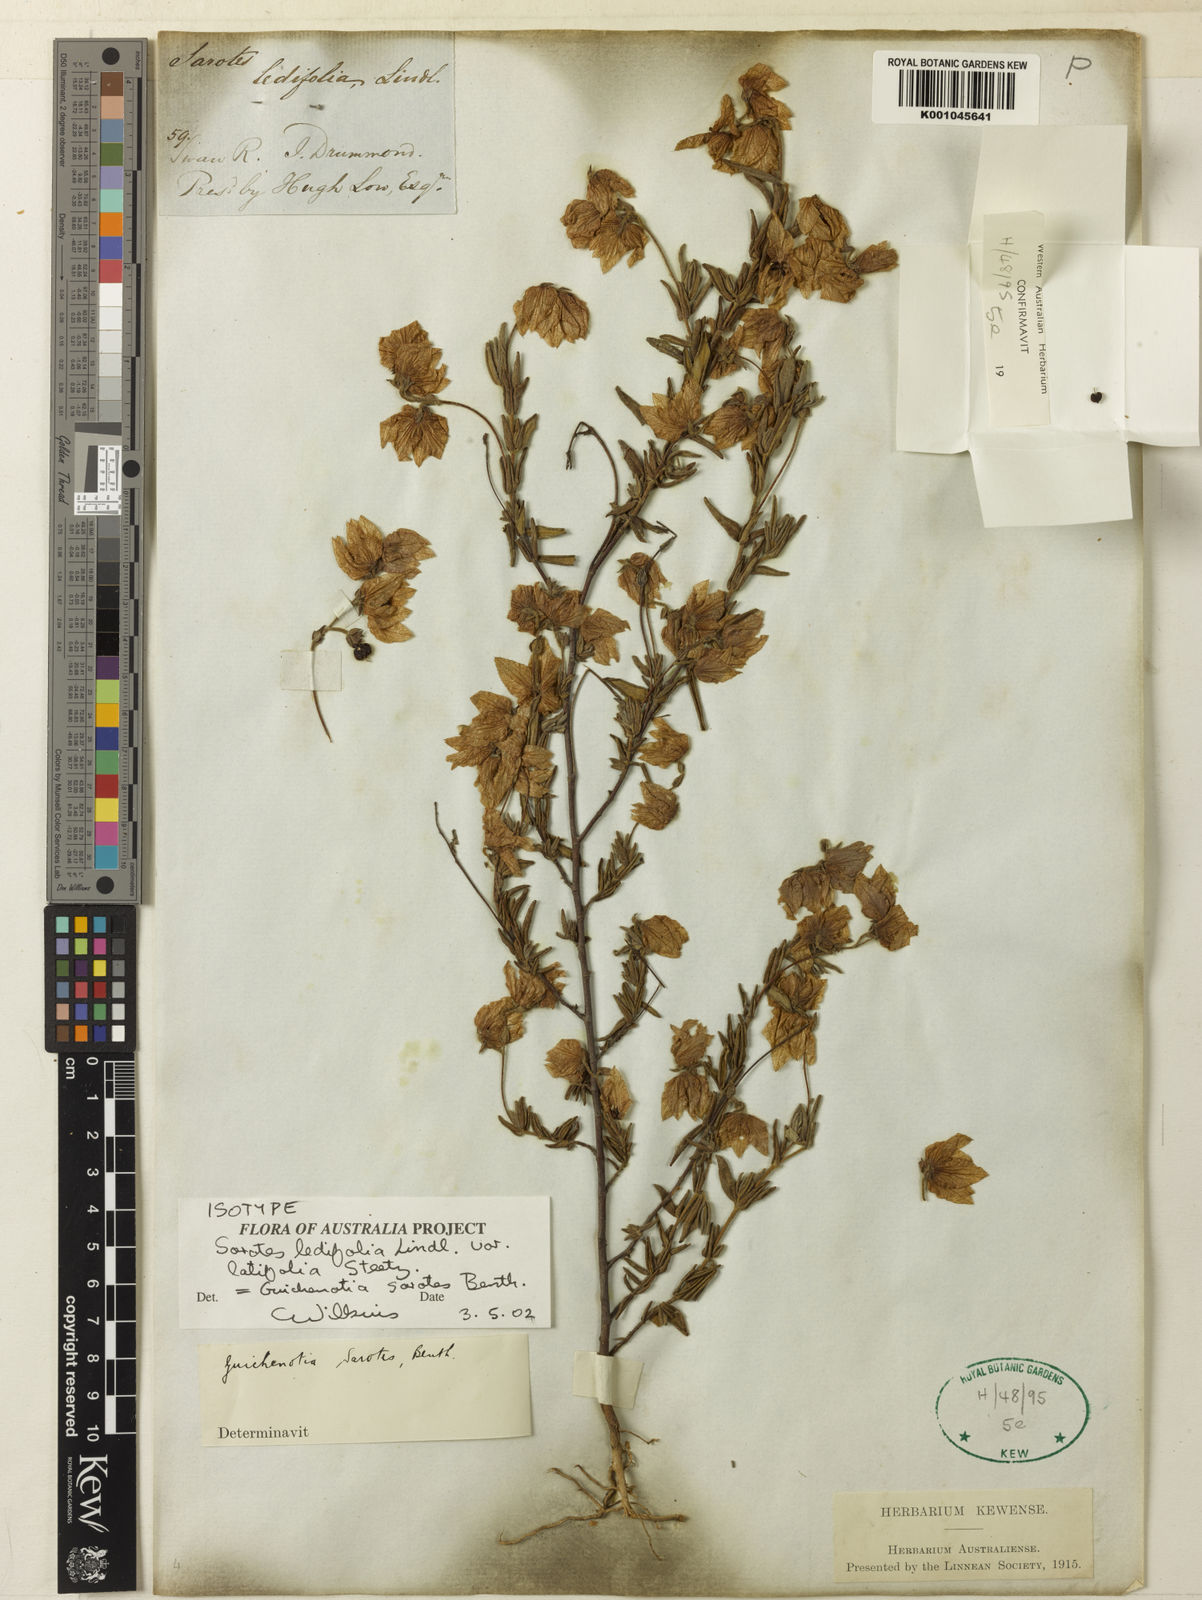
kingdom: Plantae
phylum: Tracheophyta
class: Magnoliopsida
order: Malvales
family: Malvaceae
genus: Guichenotia
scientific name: Guichenotia sarotes
